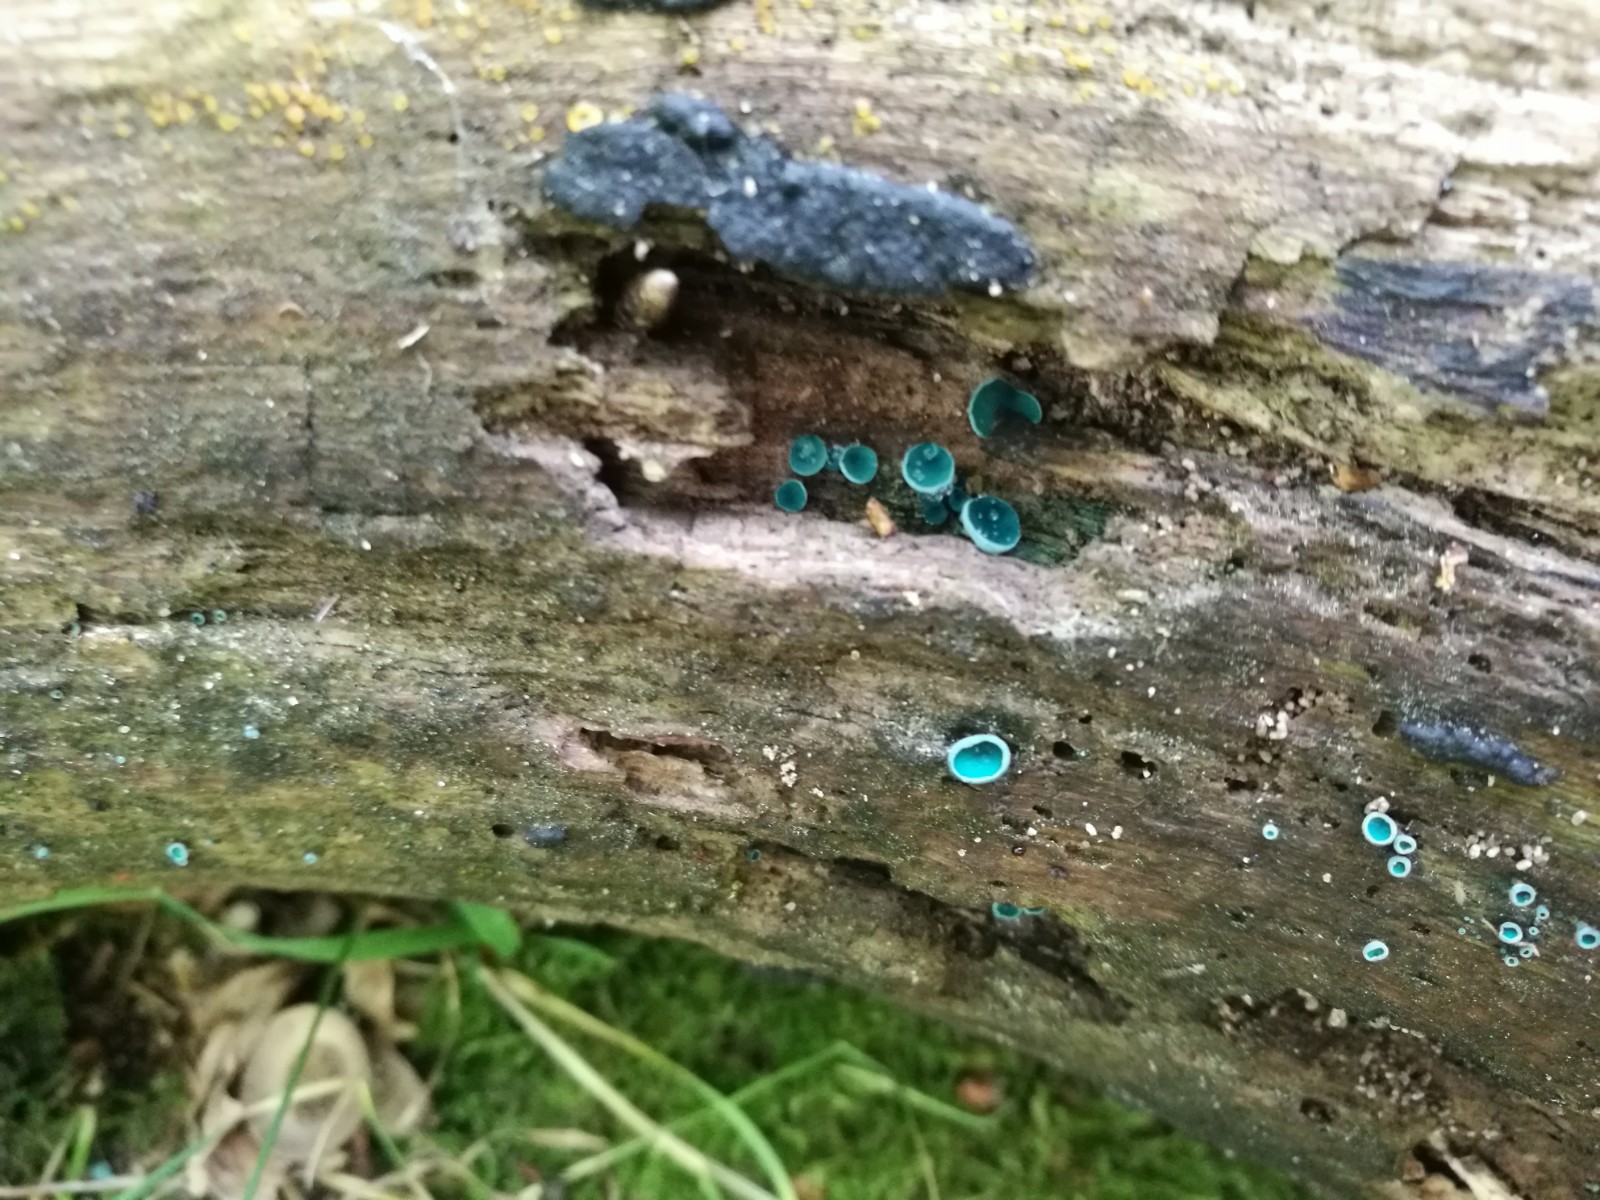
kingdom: Fungi
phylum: Ascomycota
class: Leotiomycetes
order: Helotiales
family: Chlorociboriaceae
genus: Chlorociboria
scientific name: Chlorociboria aeruginascens
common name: almindelig grønskive
